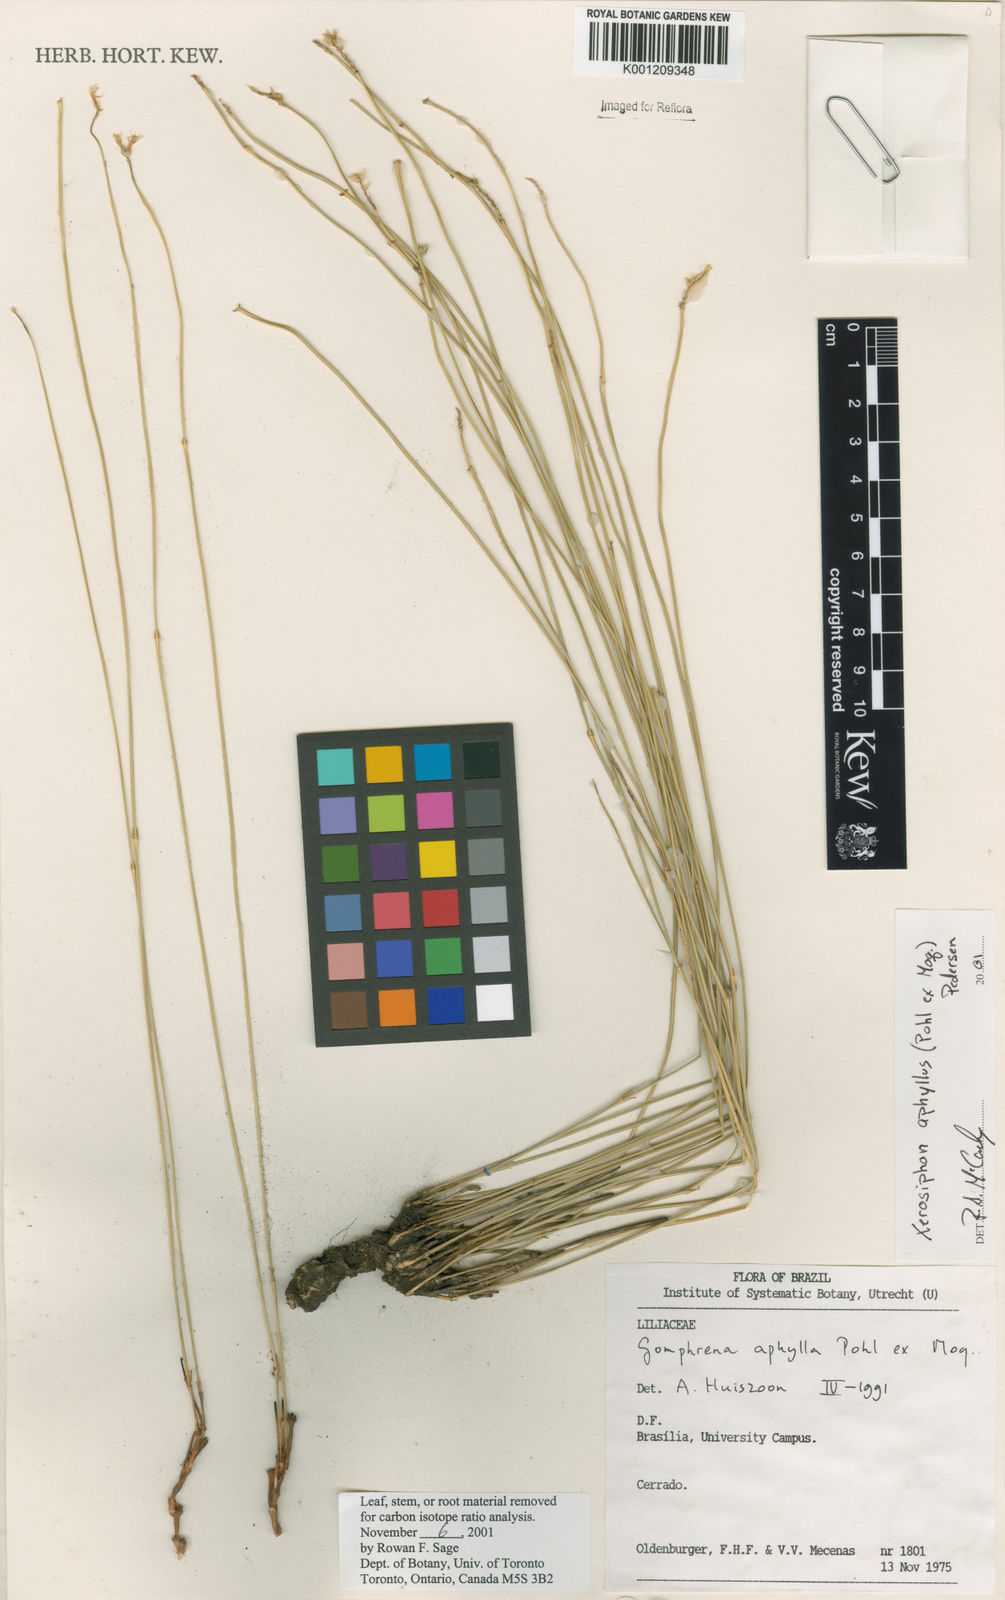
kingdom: Plantae
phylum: Tracheophyta
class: Magnoliopsida
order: Caryophyllales
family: Amaranthaceae
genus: Gomphrena
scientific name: Gomphrena aphylla
